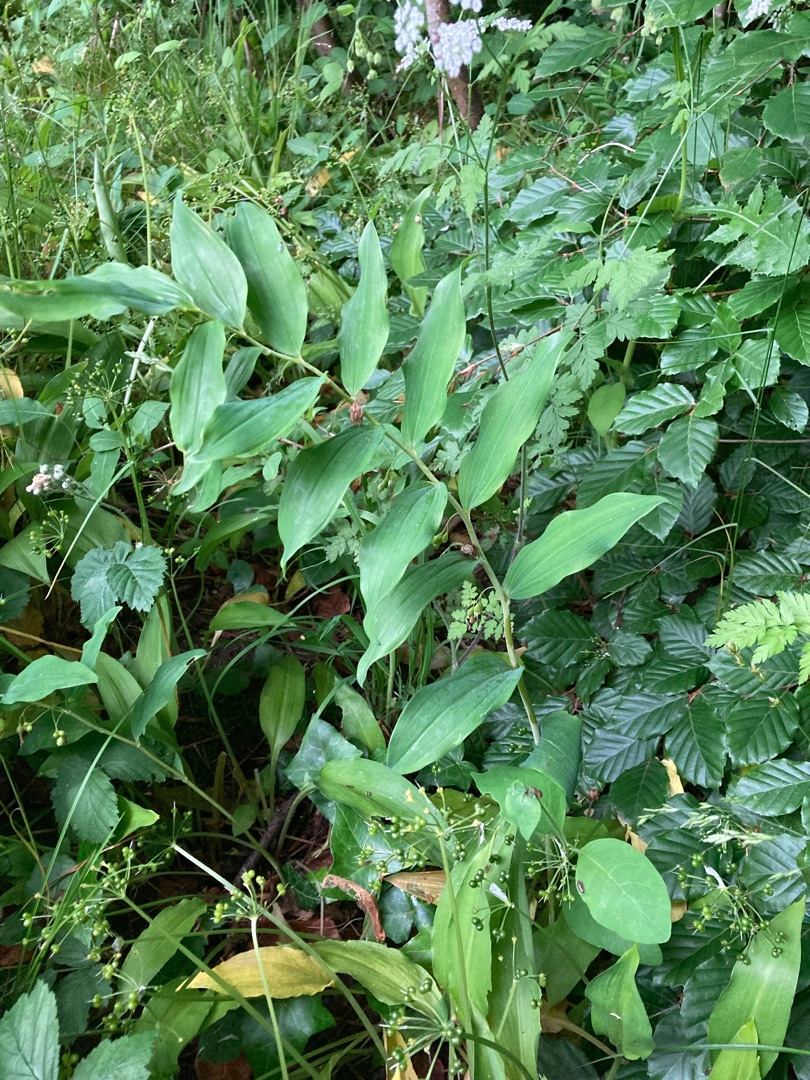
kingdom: Plantae
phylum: Tracheophyta
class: Liliopsida
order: Asparagales
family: Asparagaceae
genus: Polygonatum
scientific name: Polygonatum multiflorum
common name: Stor konval
